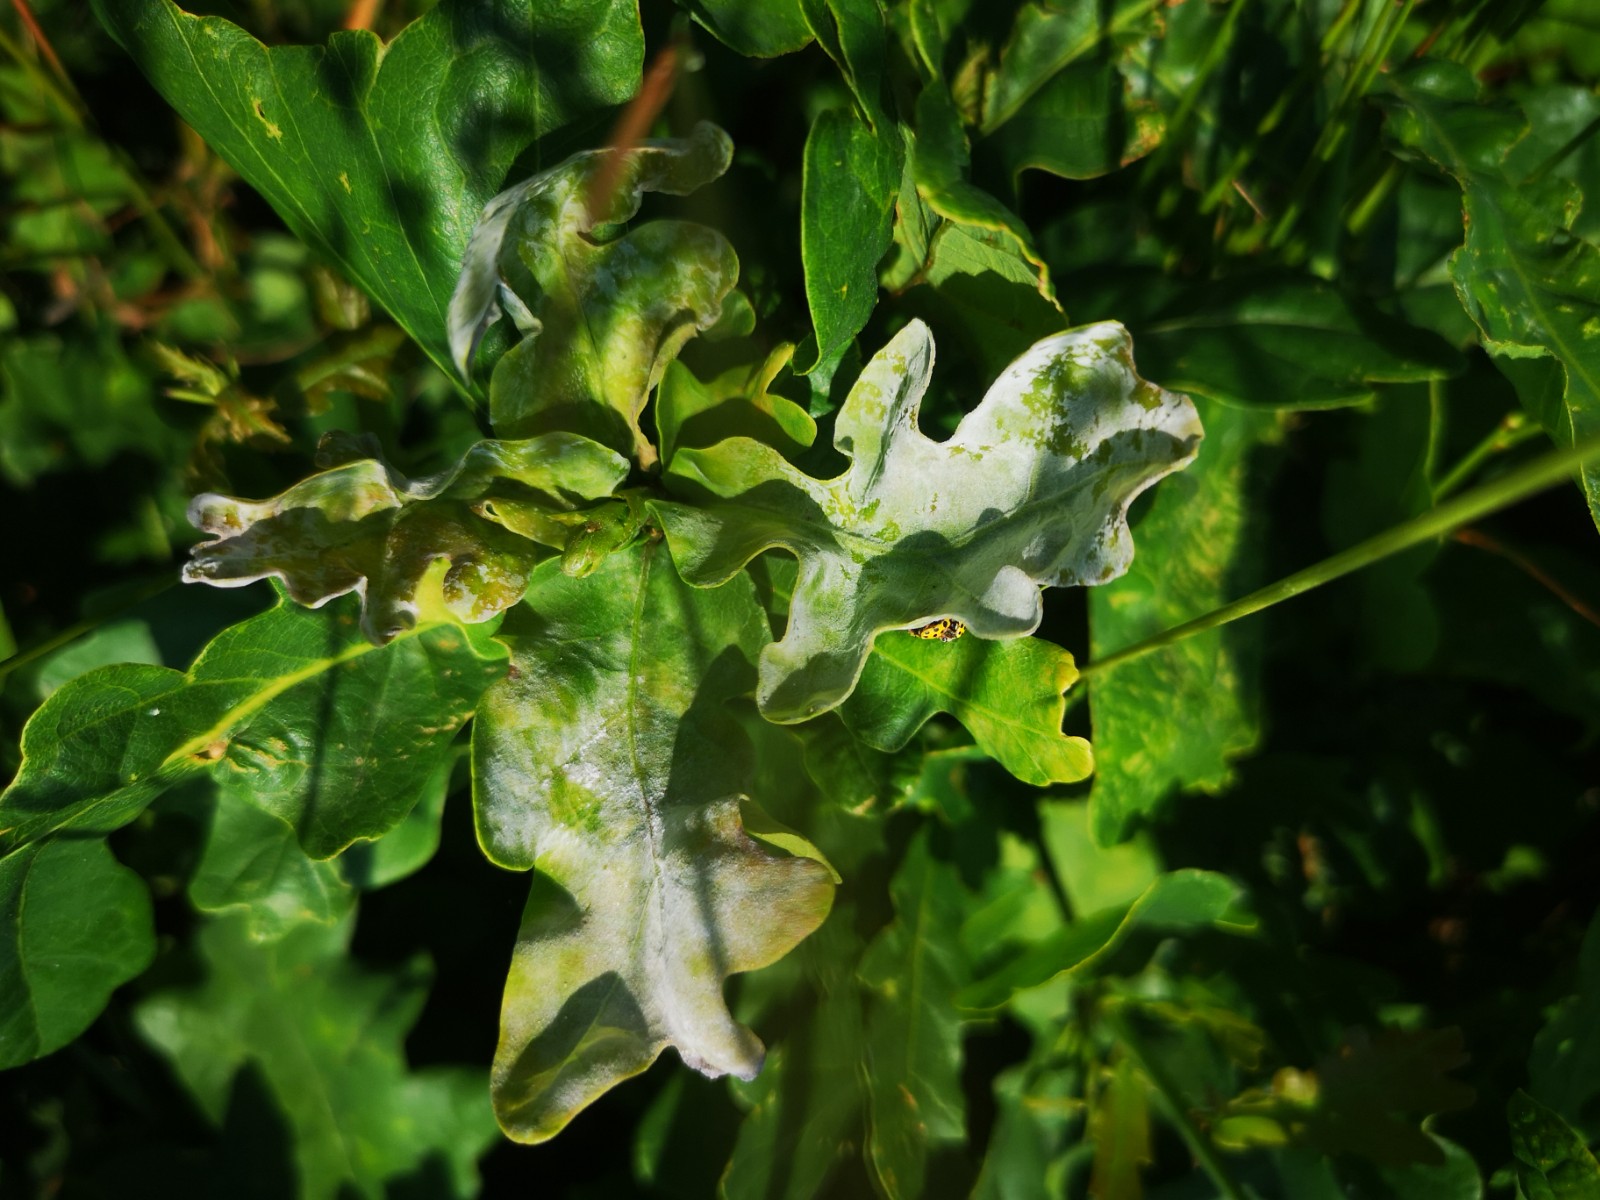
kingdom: Fungi
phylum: Ascomycota
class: Leotiomycetes
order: Helotiales
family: Erysiphaceae
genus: Erysiphe
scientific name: Erysiphe alphitoides
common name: ege-meldug
